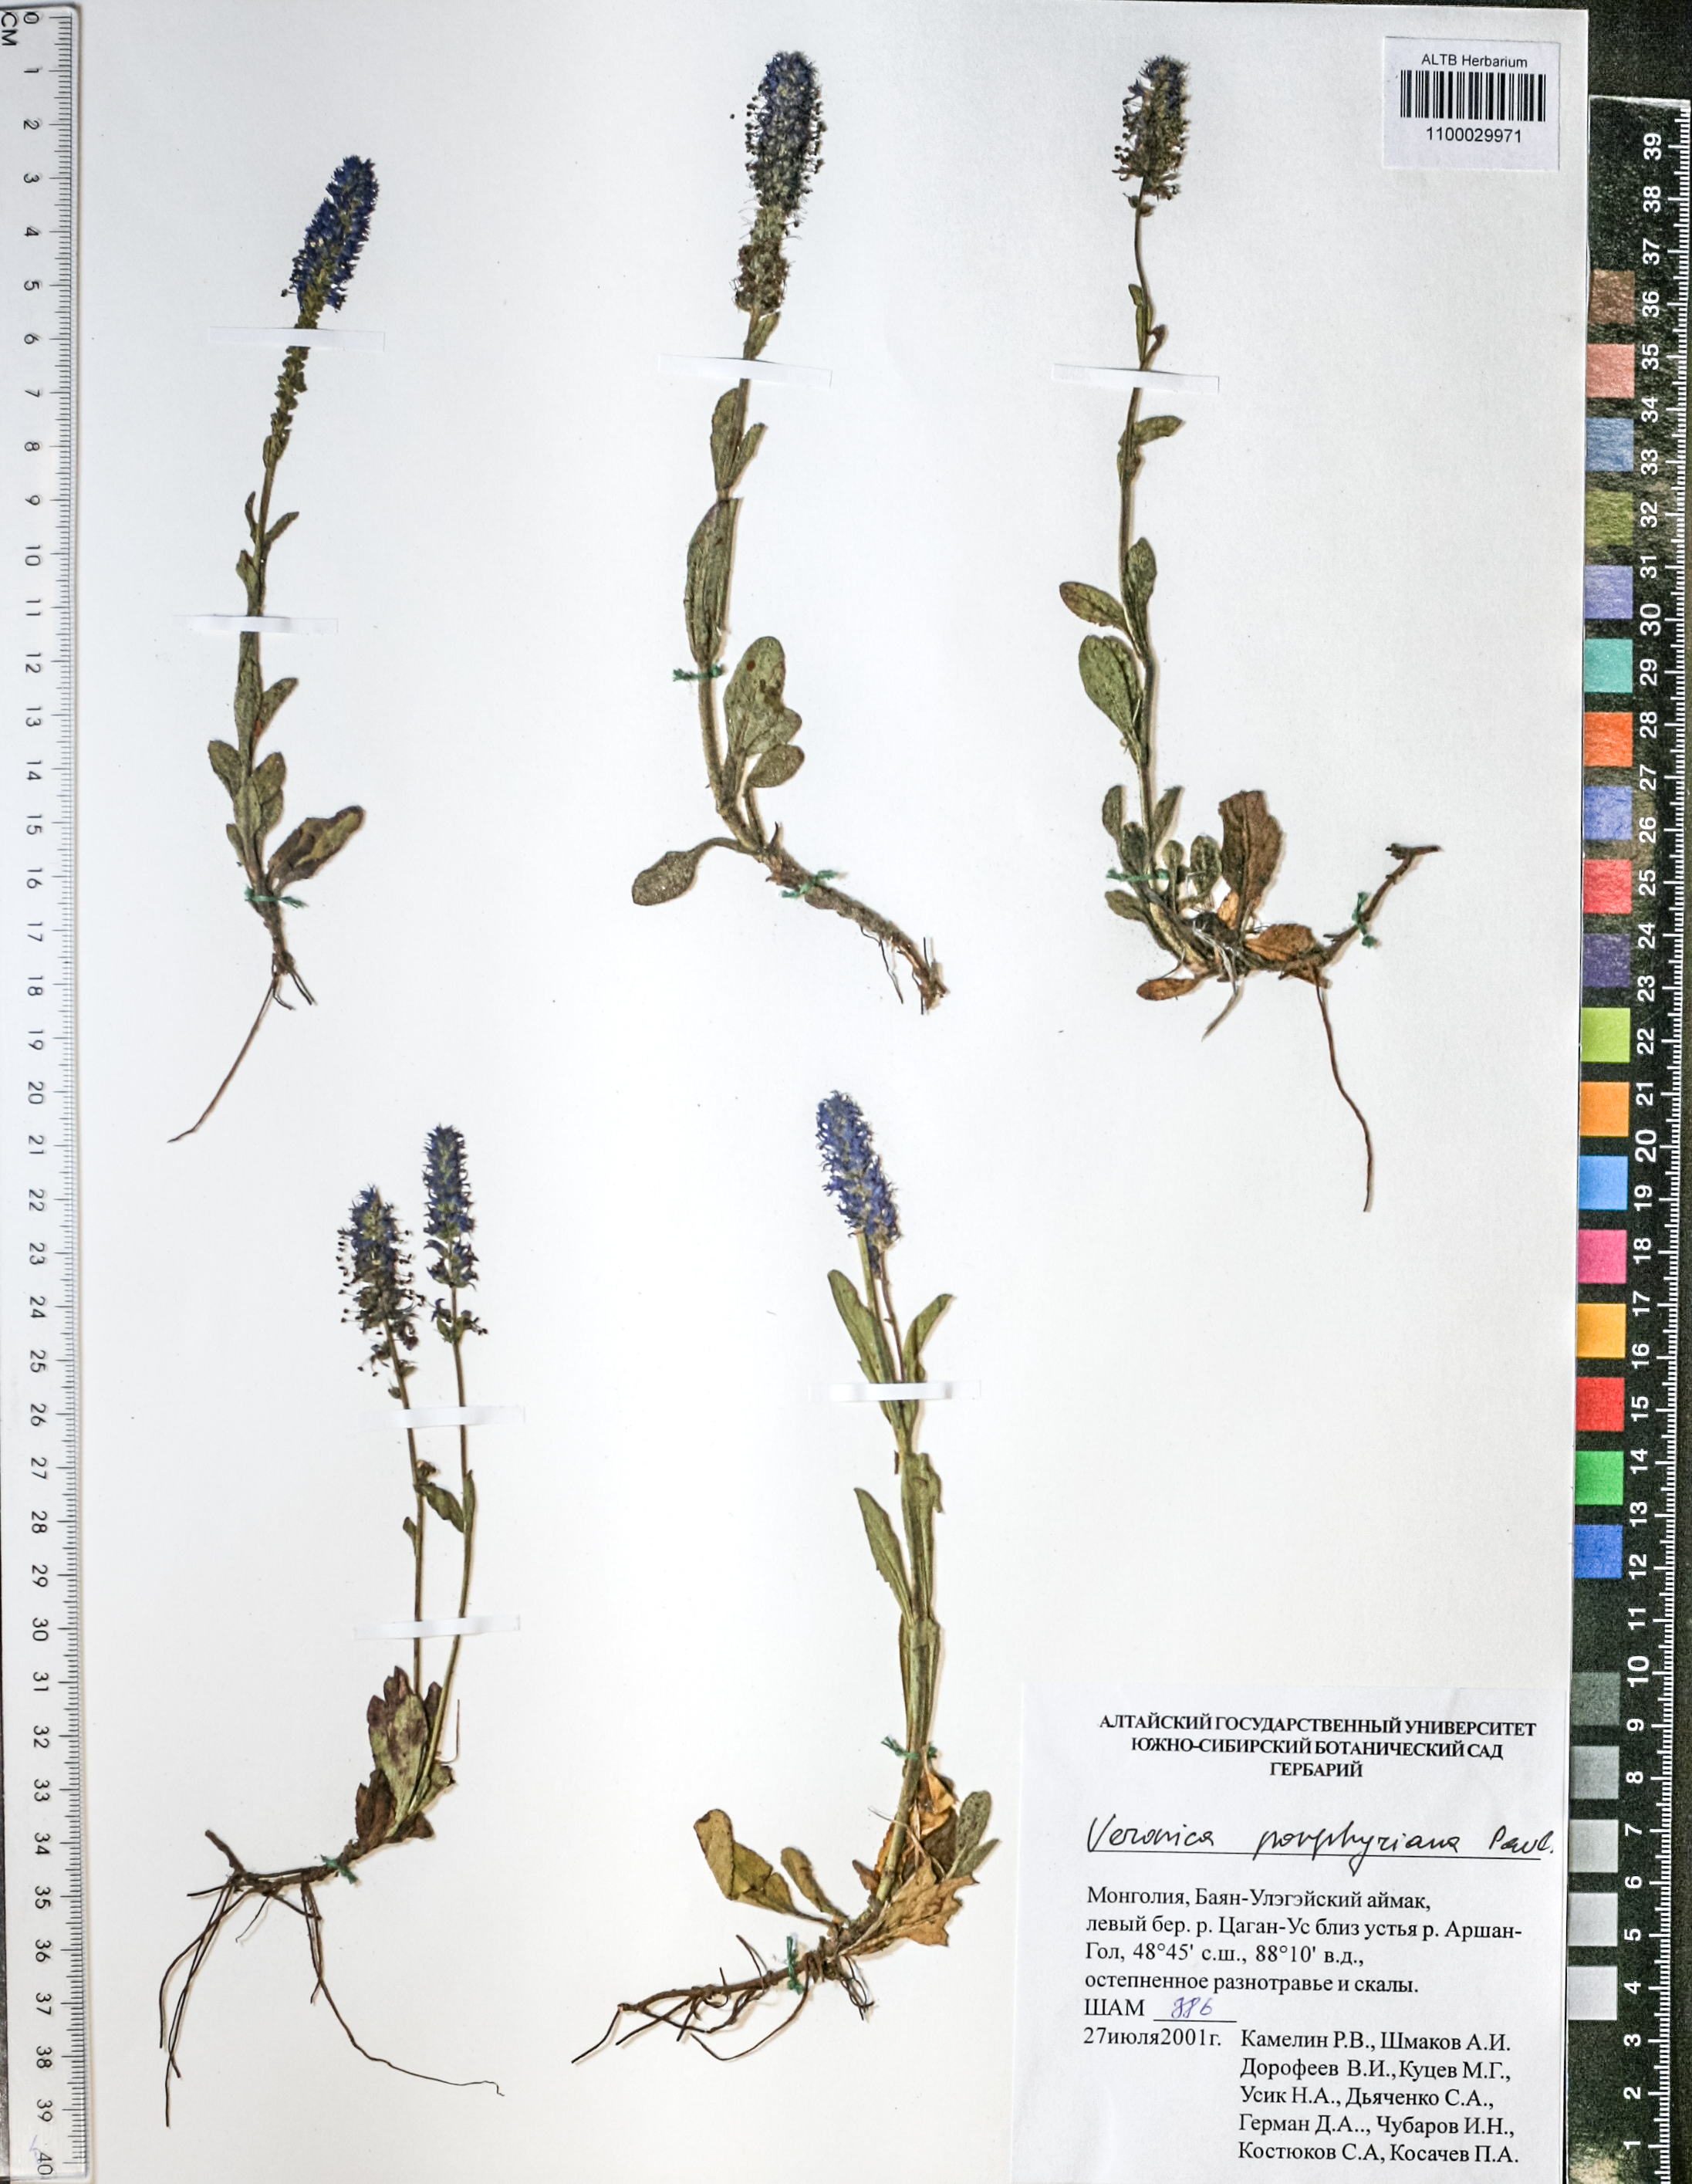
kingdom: Plantae
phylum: Tracheophyta
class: Magnoliopsida
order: Lamiales
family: Plantaginaceae
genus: Veronica
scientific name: Veronica porphyriana
